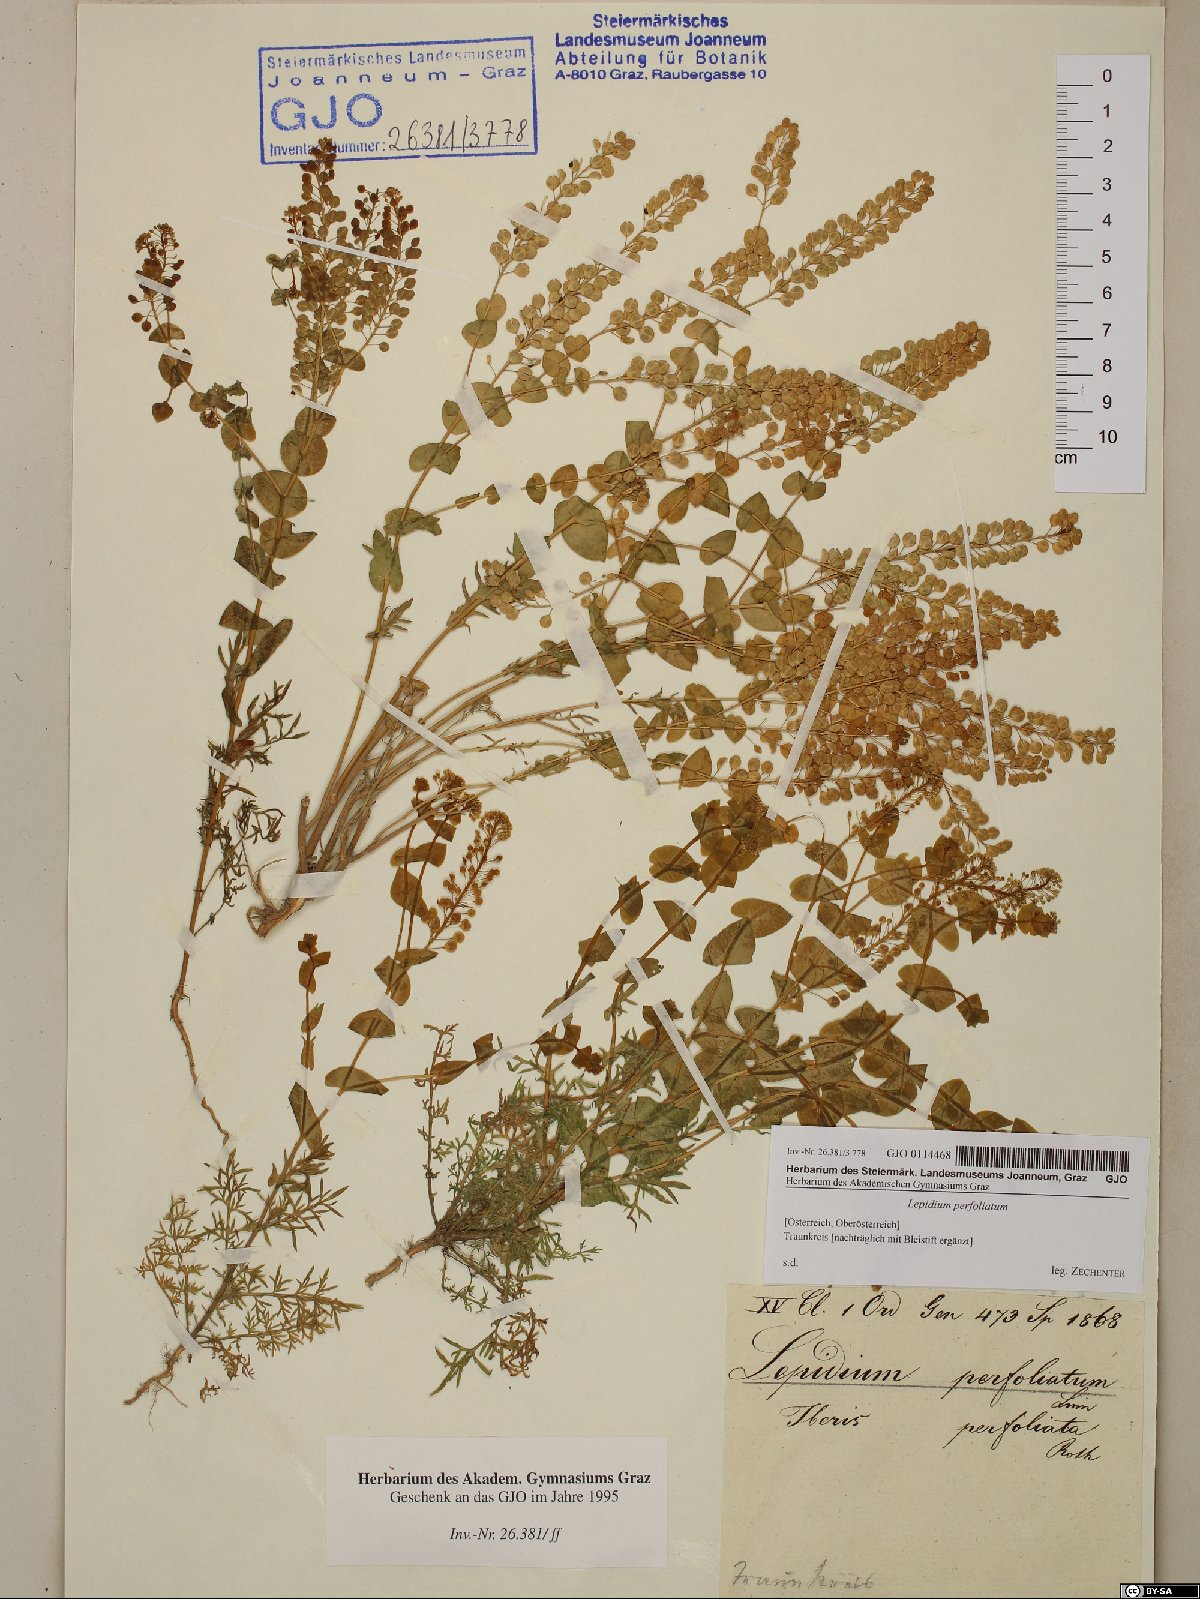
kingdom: Plantae
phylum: Tracheophyta
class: Magnoliopsida
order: Brassicales
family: Brassicaceae
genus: Lepidium
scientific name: Lepidium perfoliatum
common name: Perfoliate pepperwort
